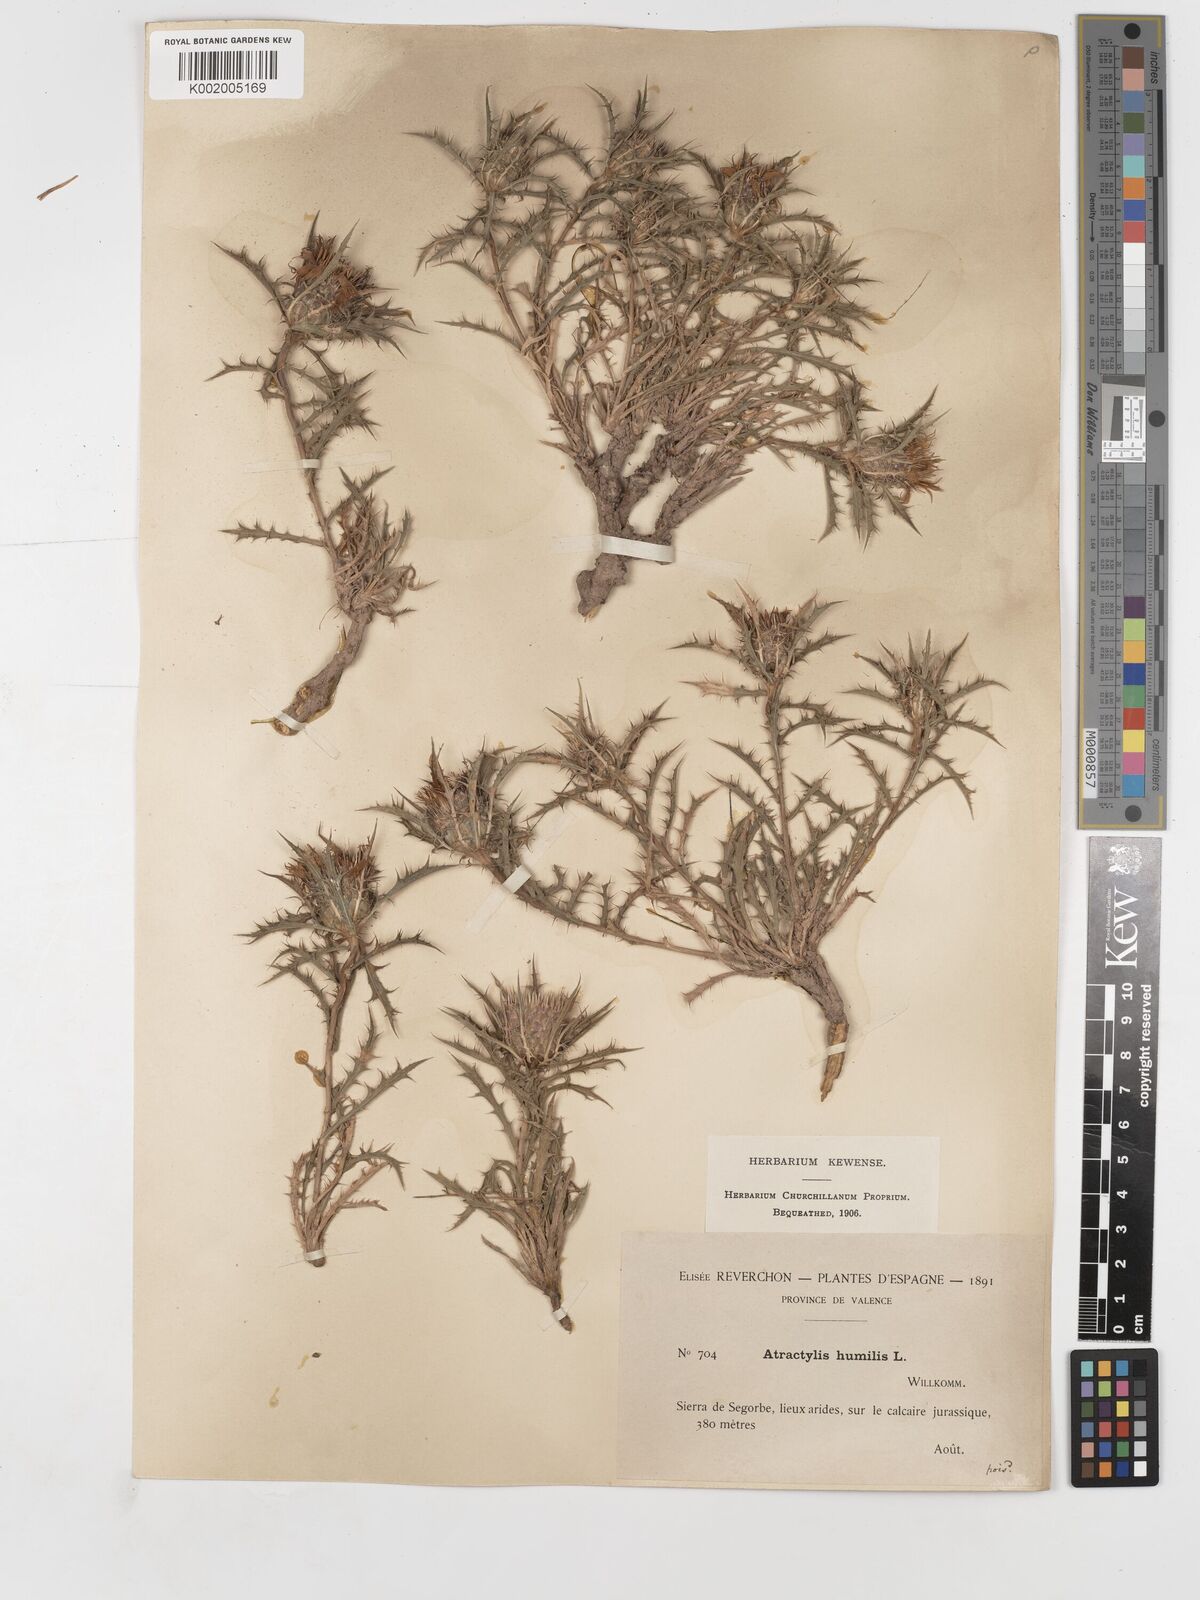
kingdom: Plantae
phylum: Tracheophyta
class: Magnoliopsida
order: Asterales
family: Asteraceae
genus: Atractylis
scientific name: Atractylis humilis
